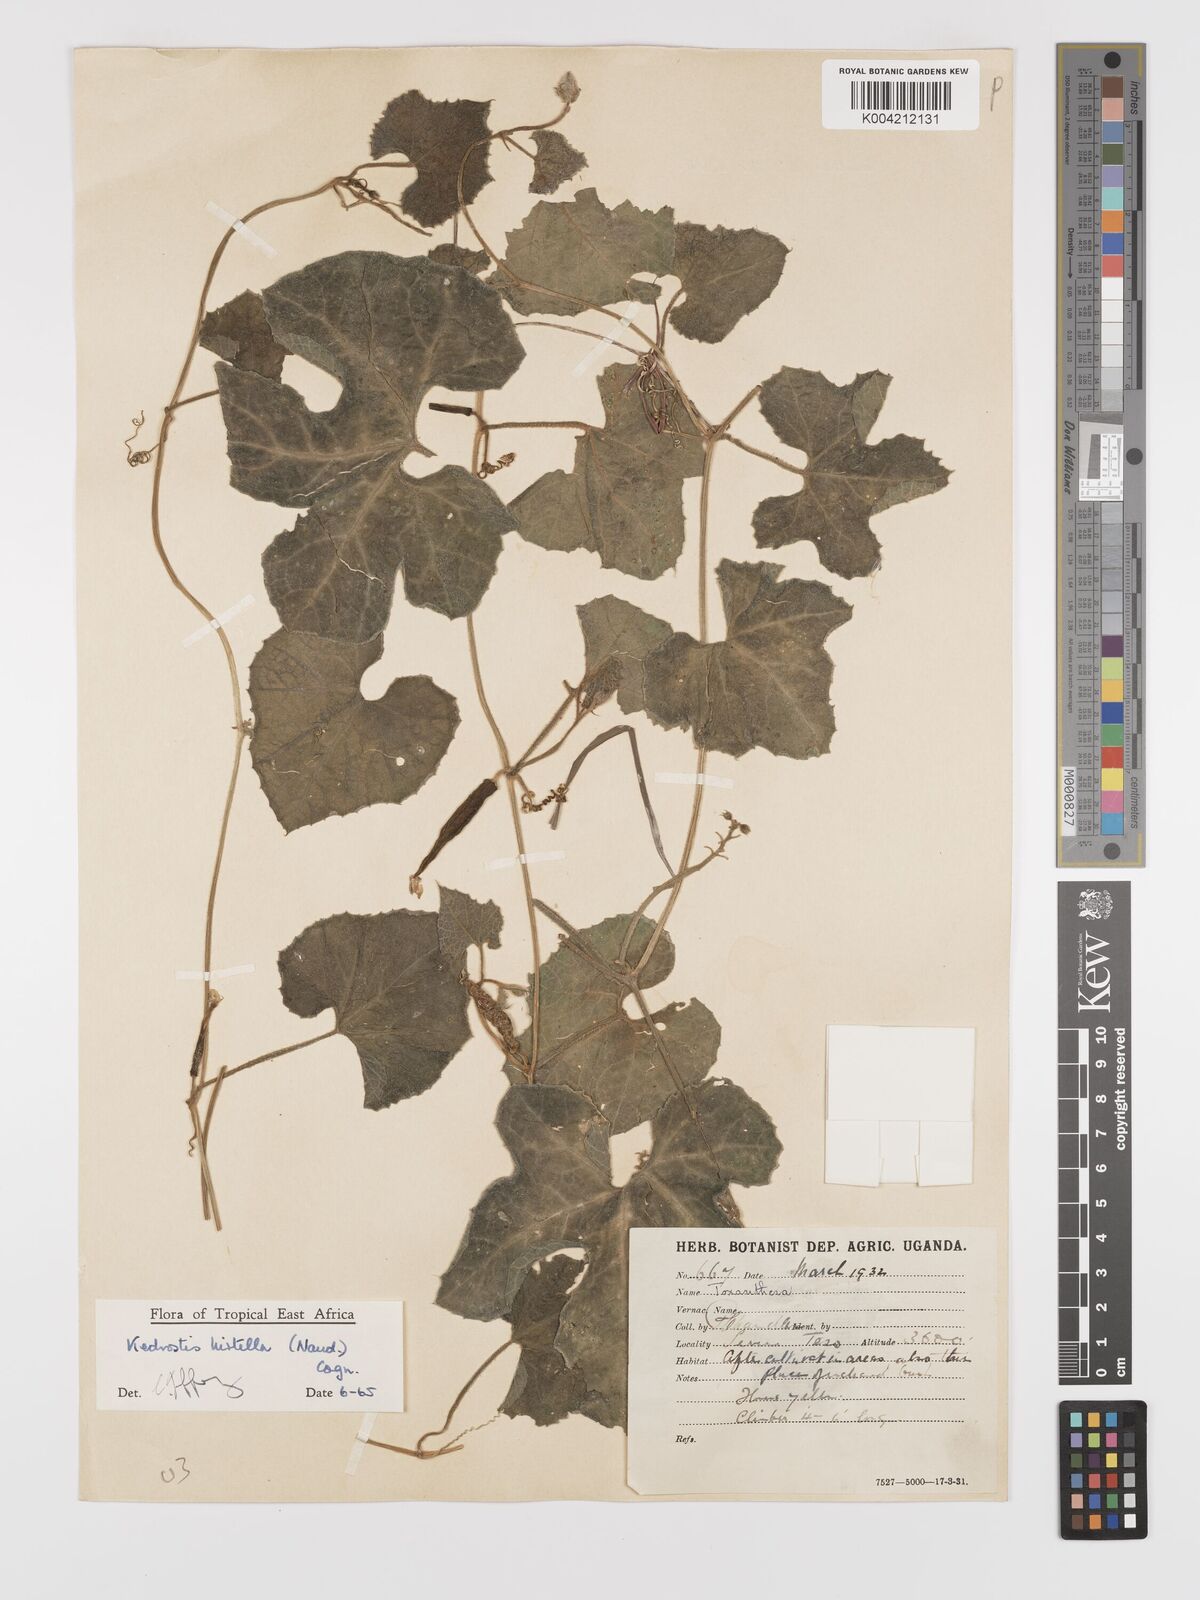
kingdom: Plantae
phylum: Tracheophyta
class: Magnoliopsida
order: Cucurbitales
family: Cucurbitaceae
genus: Kedrostis
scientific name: Kedrostis leloja
